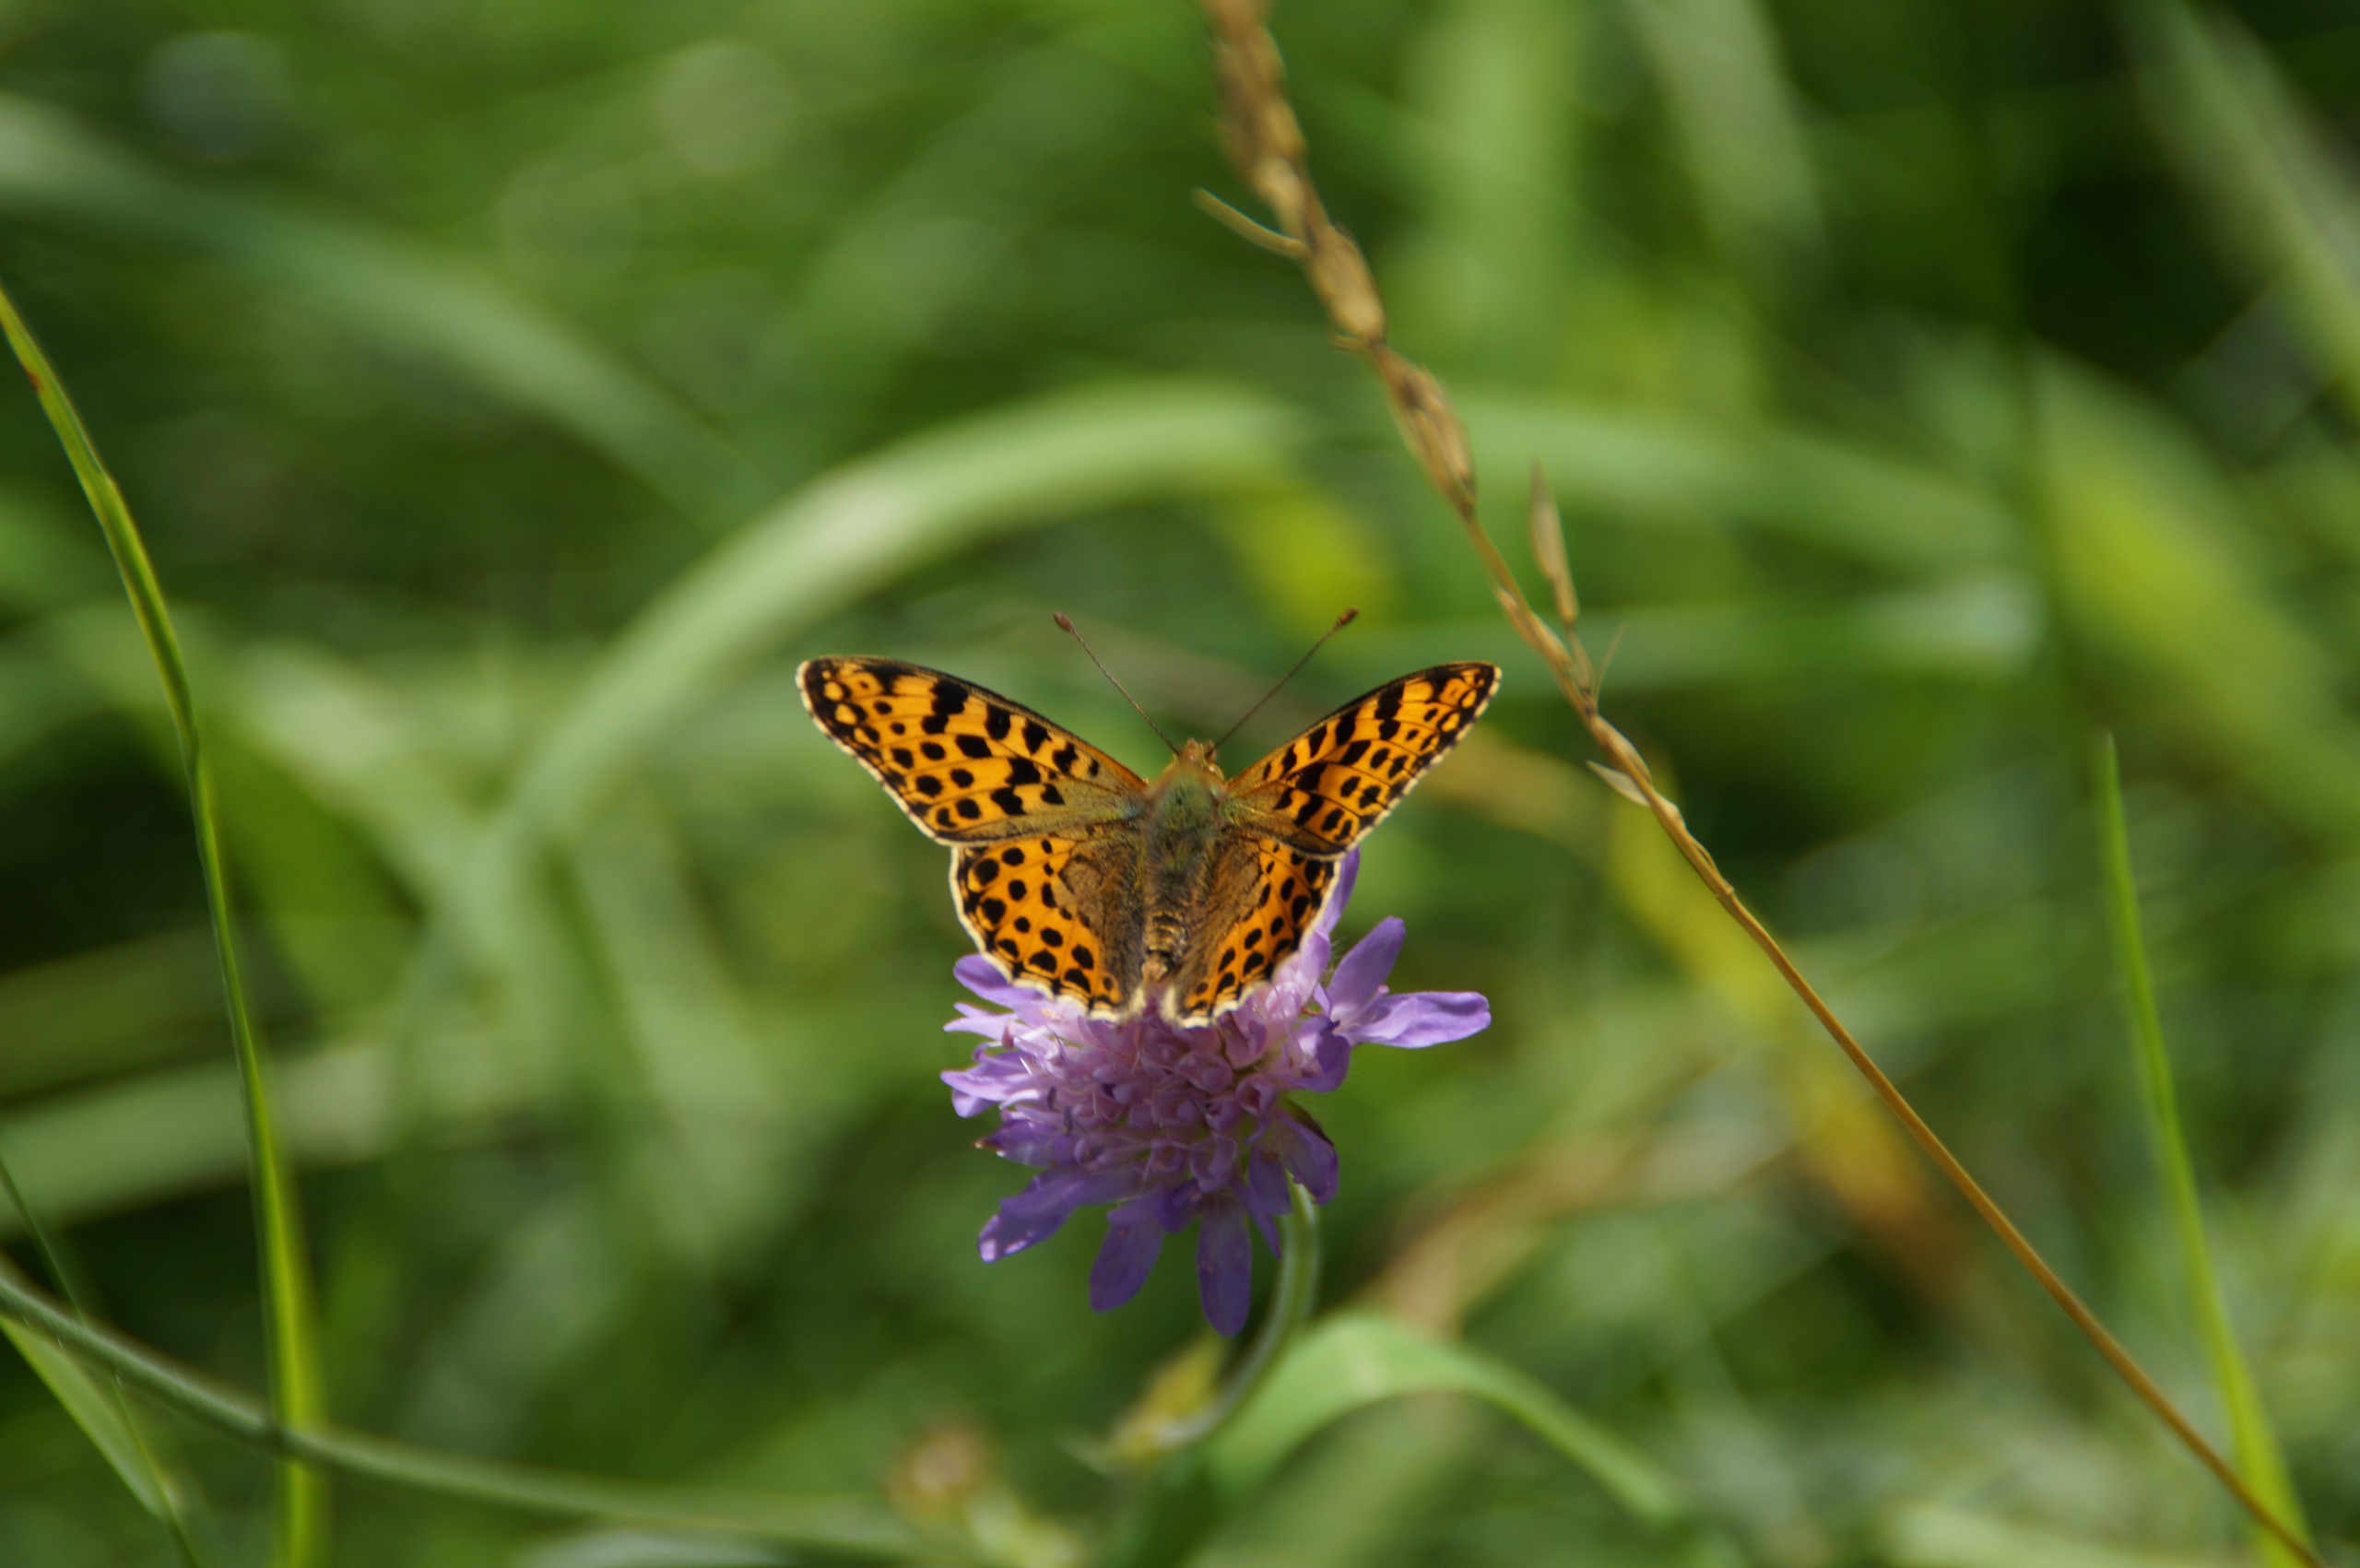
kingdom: Animalia
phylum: Arthropoda
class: Insecta
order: Lepidoptera
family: Nymphalidae
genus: Issoria
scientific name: Issoria lathonia
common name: Storplettet perlemorsommerfugl
